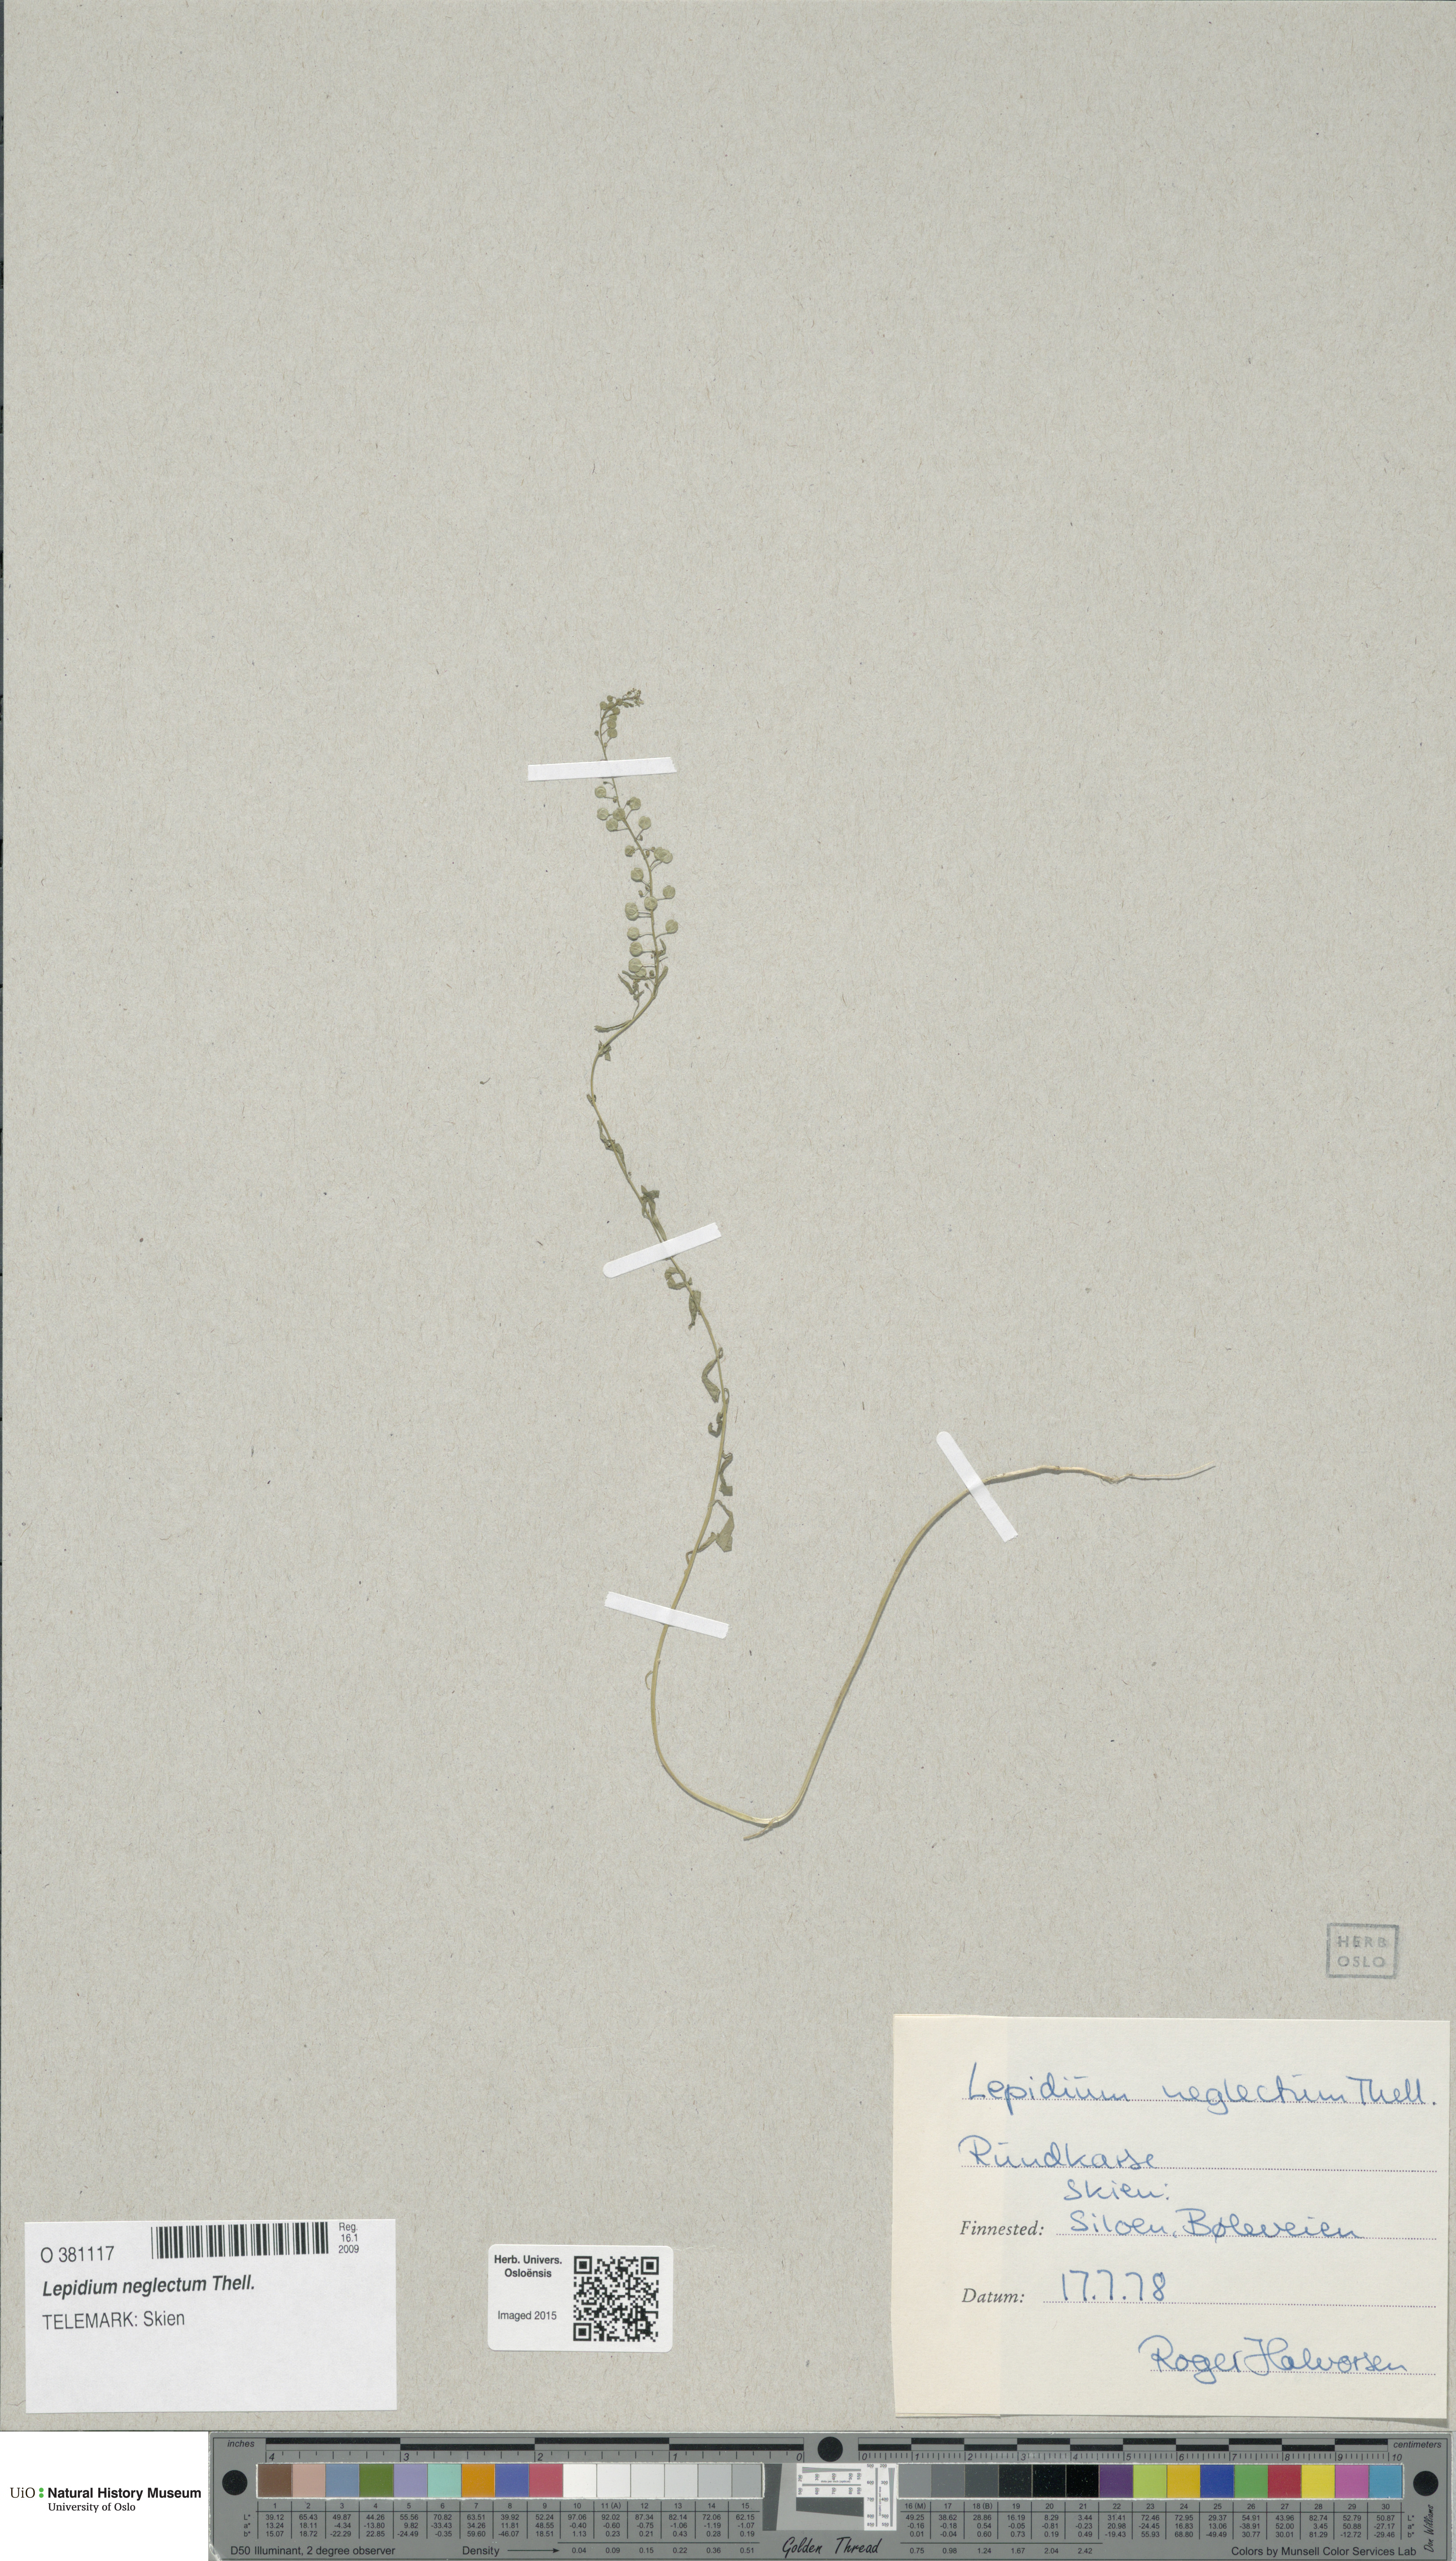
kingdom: Plantae
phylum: Tracheophyta
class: Magnoliopsida
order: Brassicales
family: Brassicaceae
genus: Lepidium
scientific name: Lepidium densiflorum
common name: Miner's pepperwort
